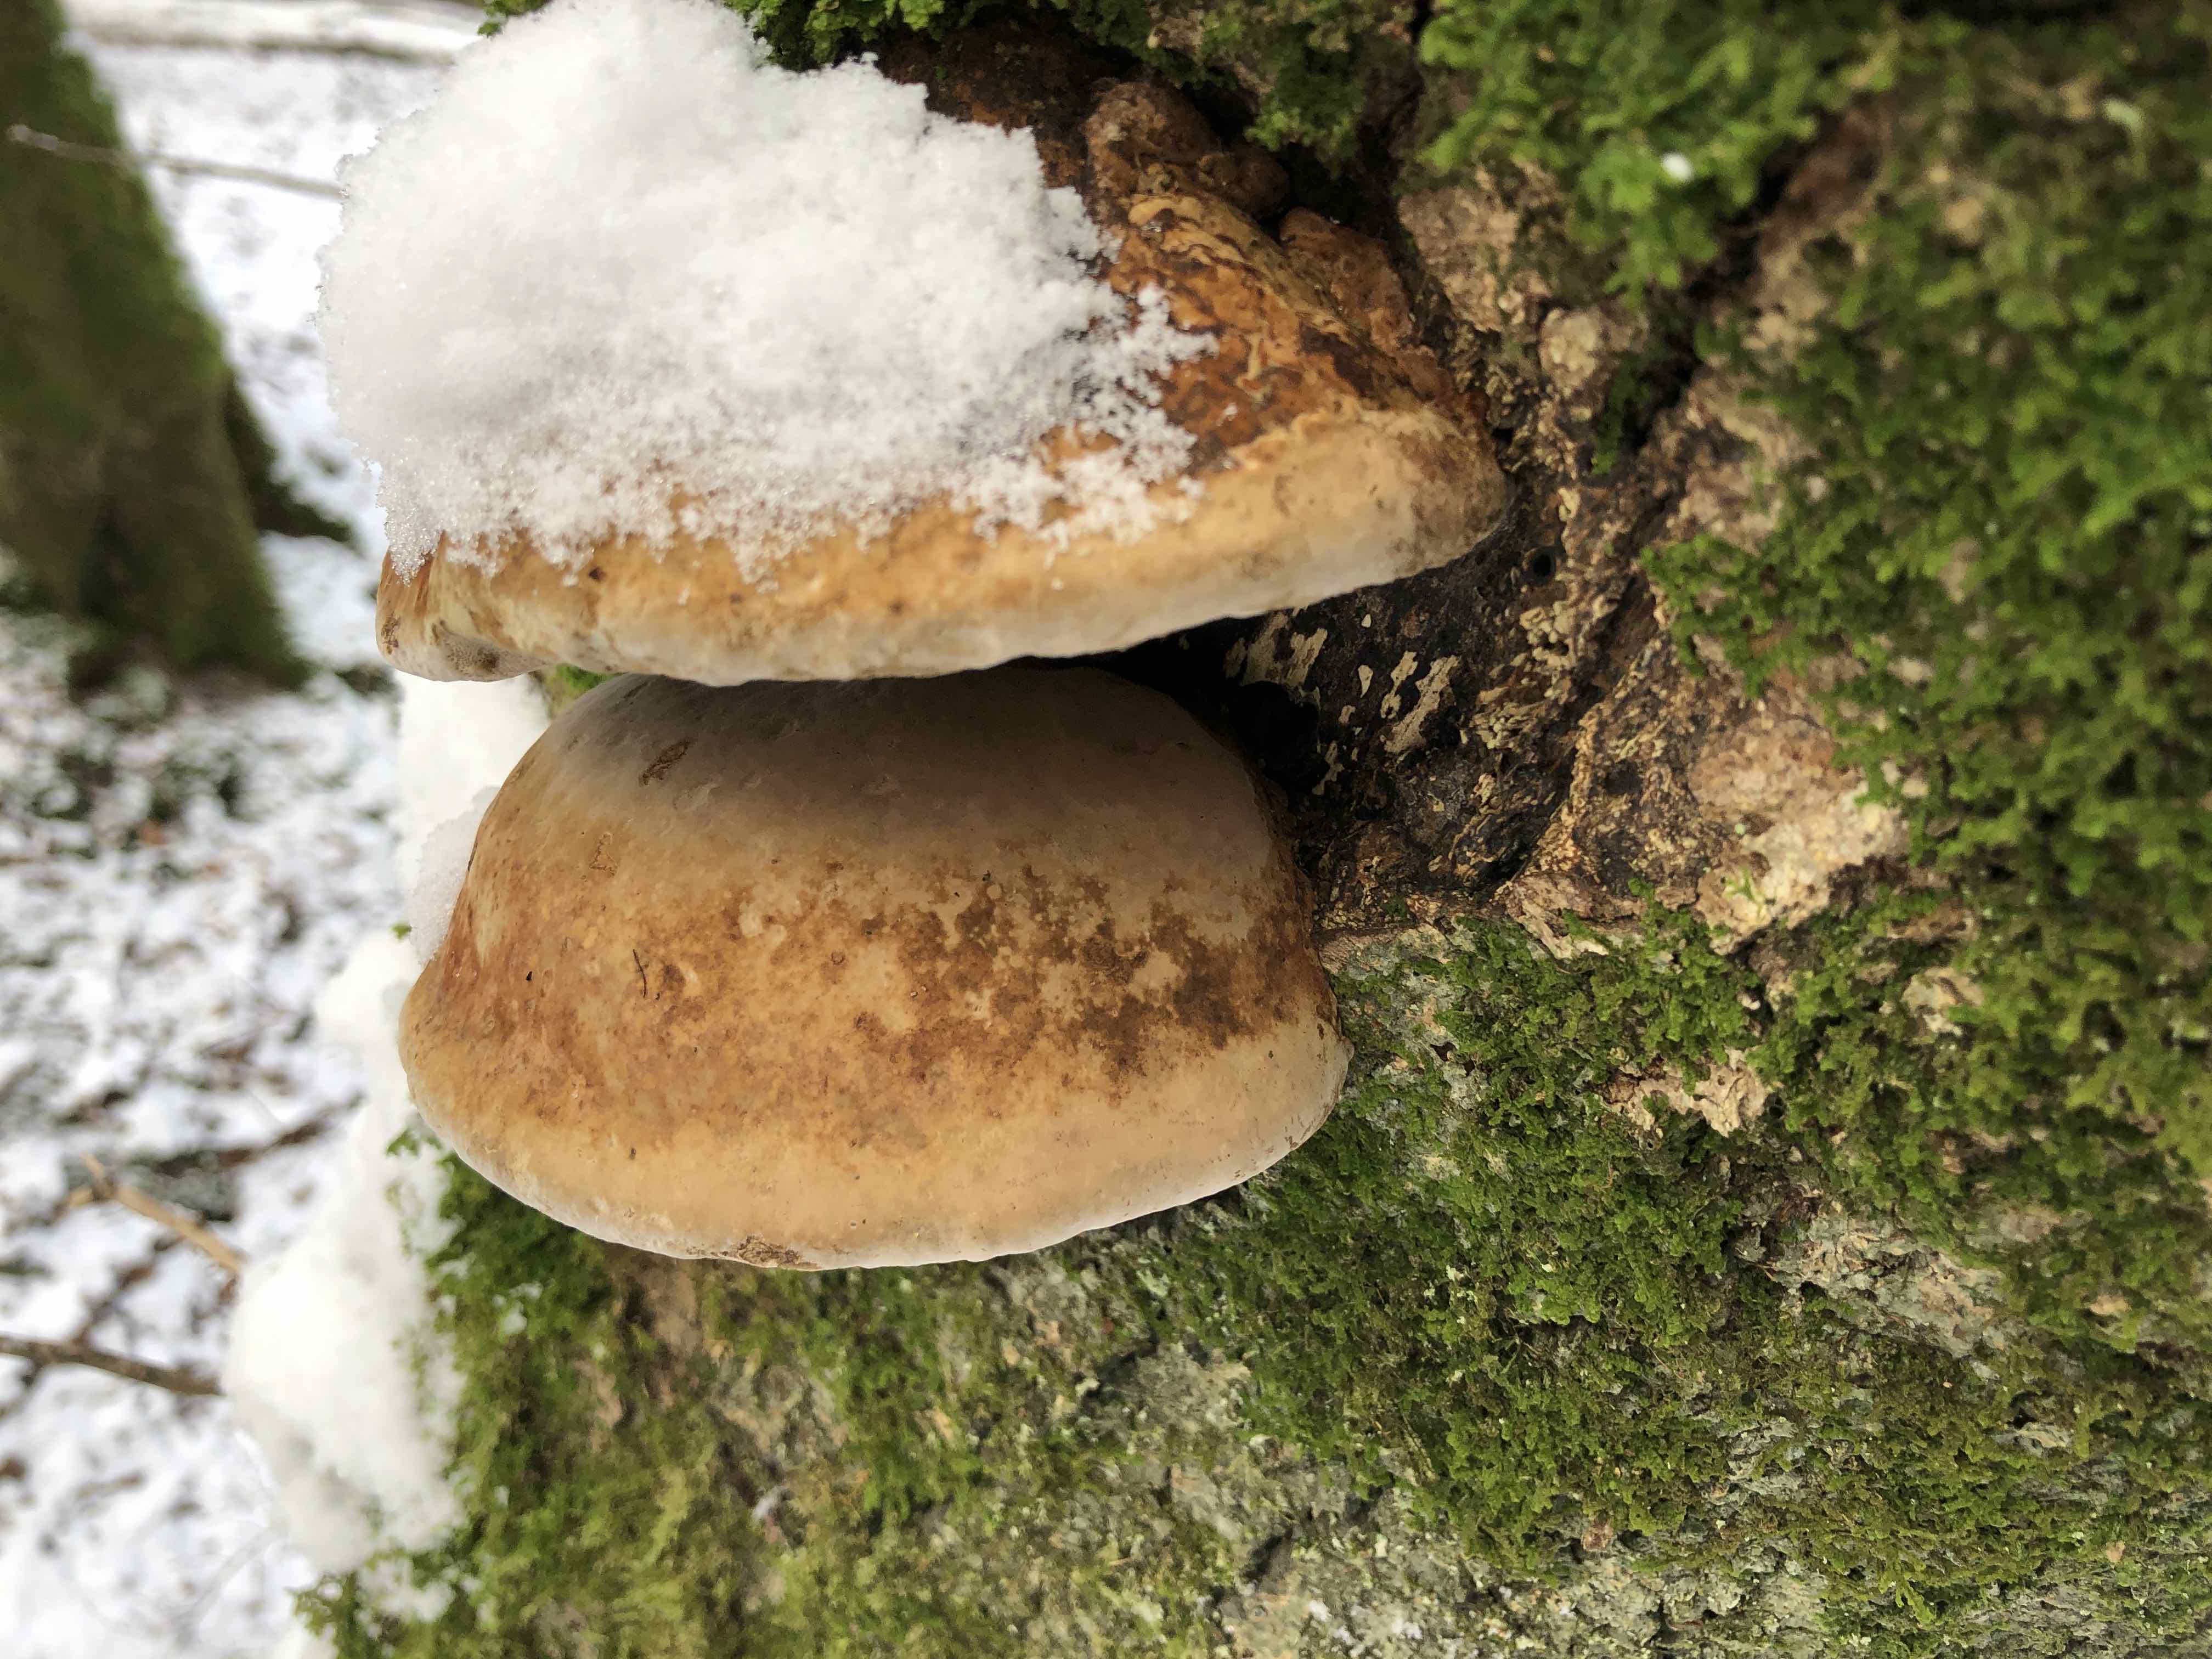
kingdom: Fungi
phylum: Basidiomycota
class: Agaricomycetes
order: Polyporales
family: Polyporaceae
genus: Fomes
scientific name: Fomes fomentarius
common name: tøndersvamp
